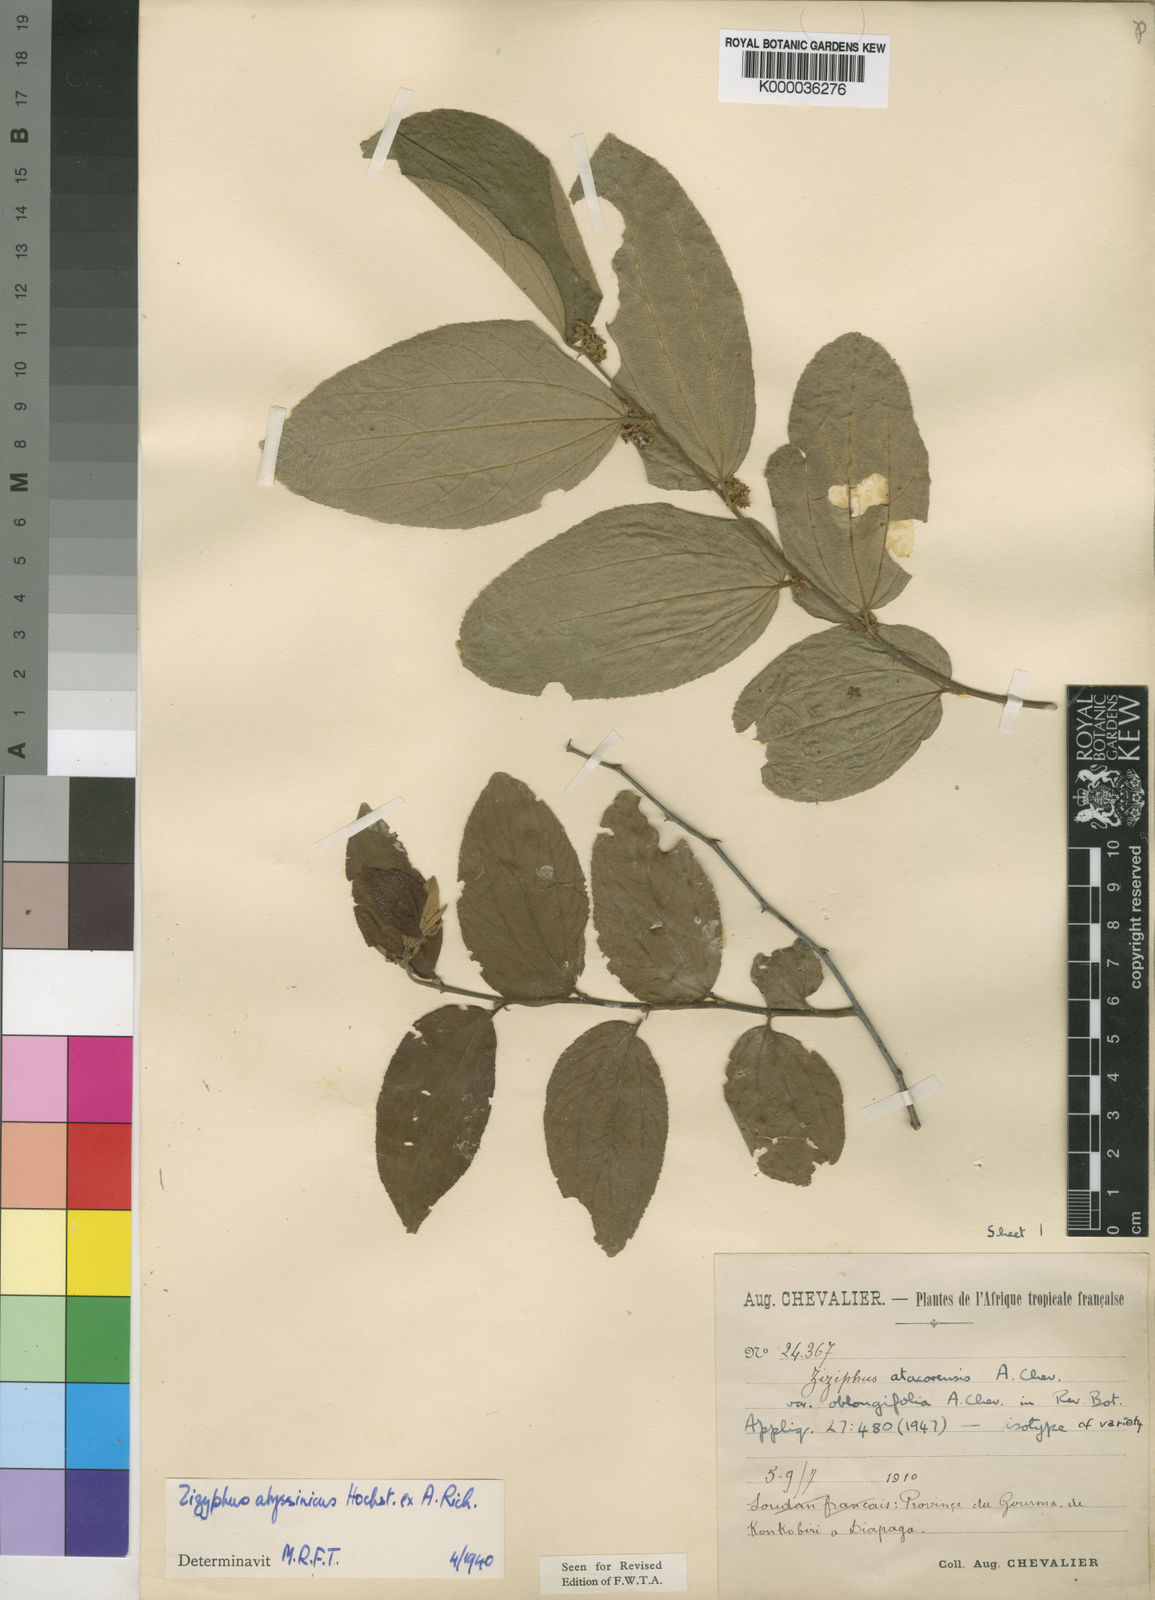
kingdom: Plantae
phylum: Tracheophyta
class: Magnoliopsida
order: Rosales
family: Rhamnaceae
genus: Ziziphus
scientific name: Ziziphus abyssinica
